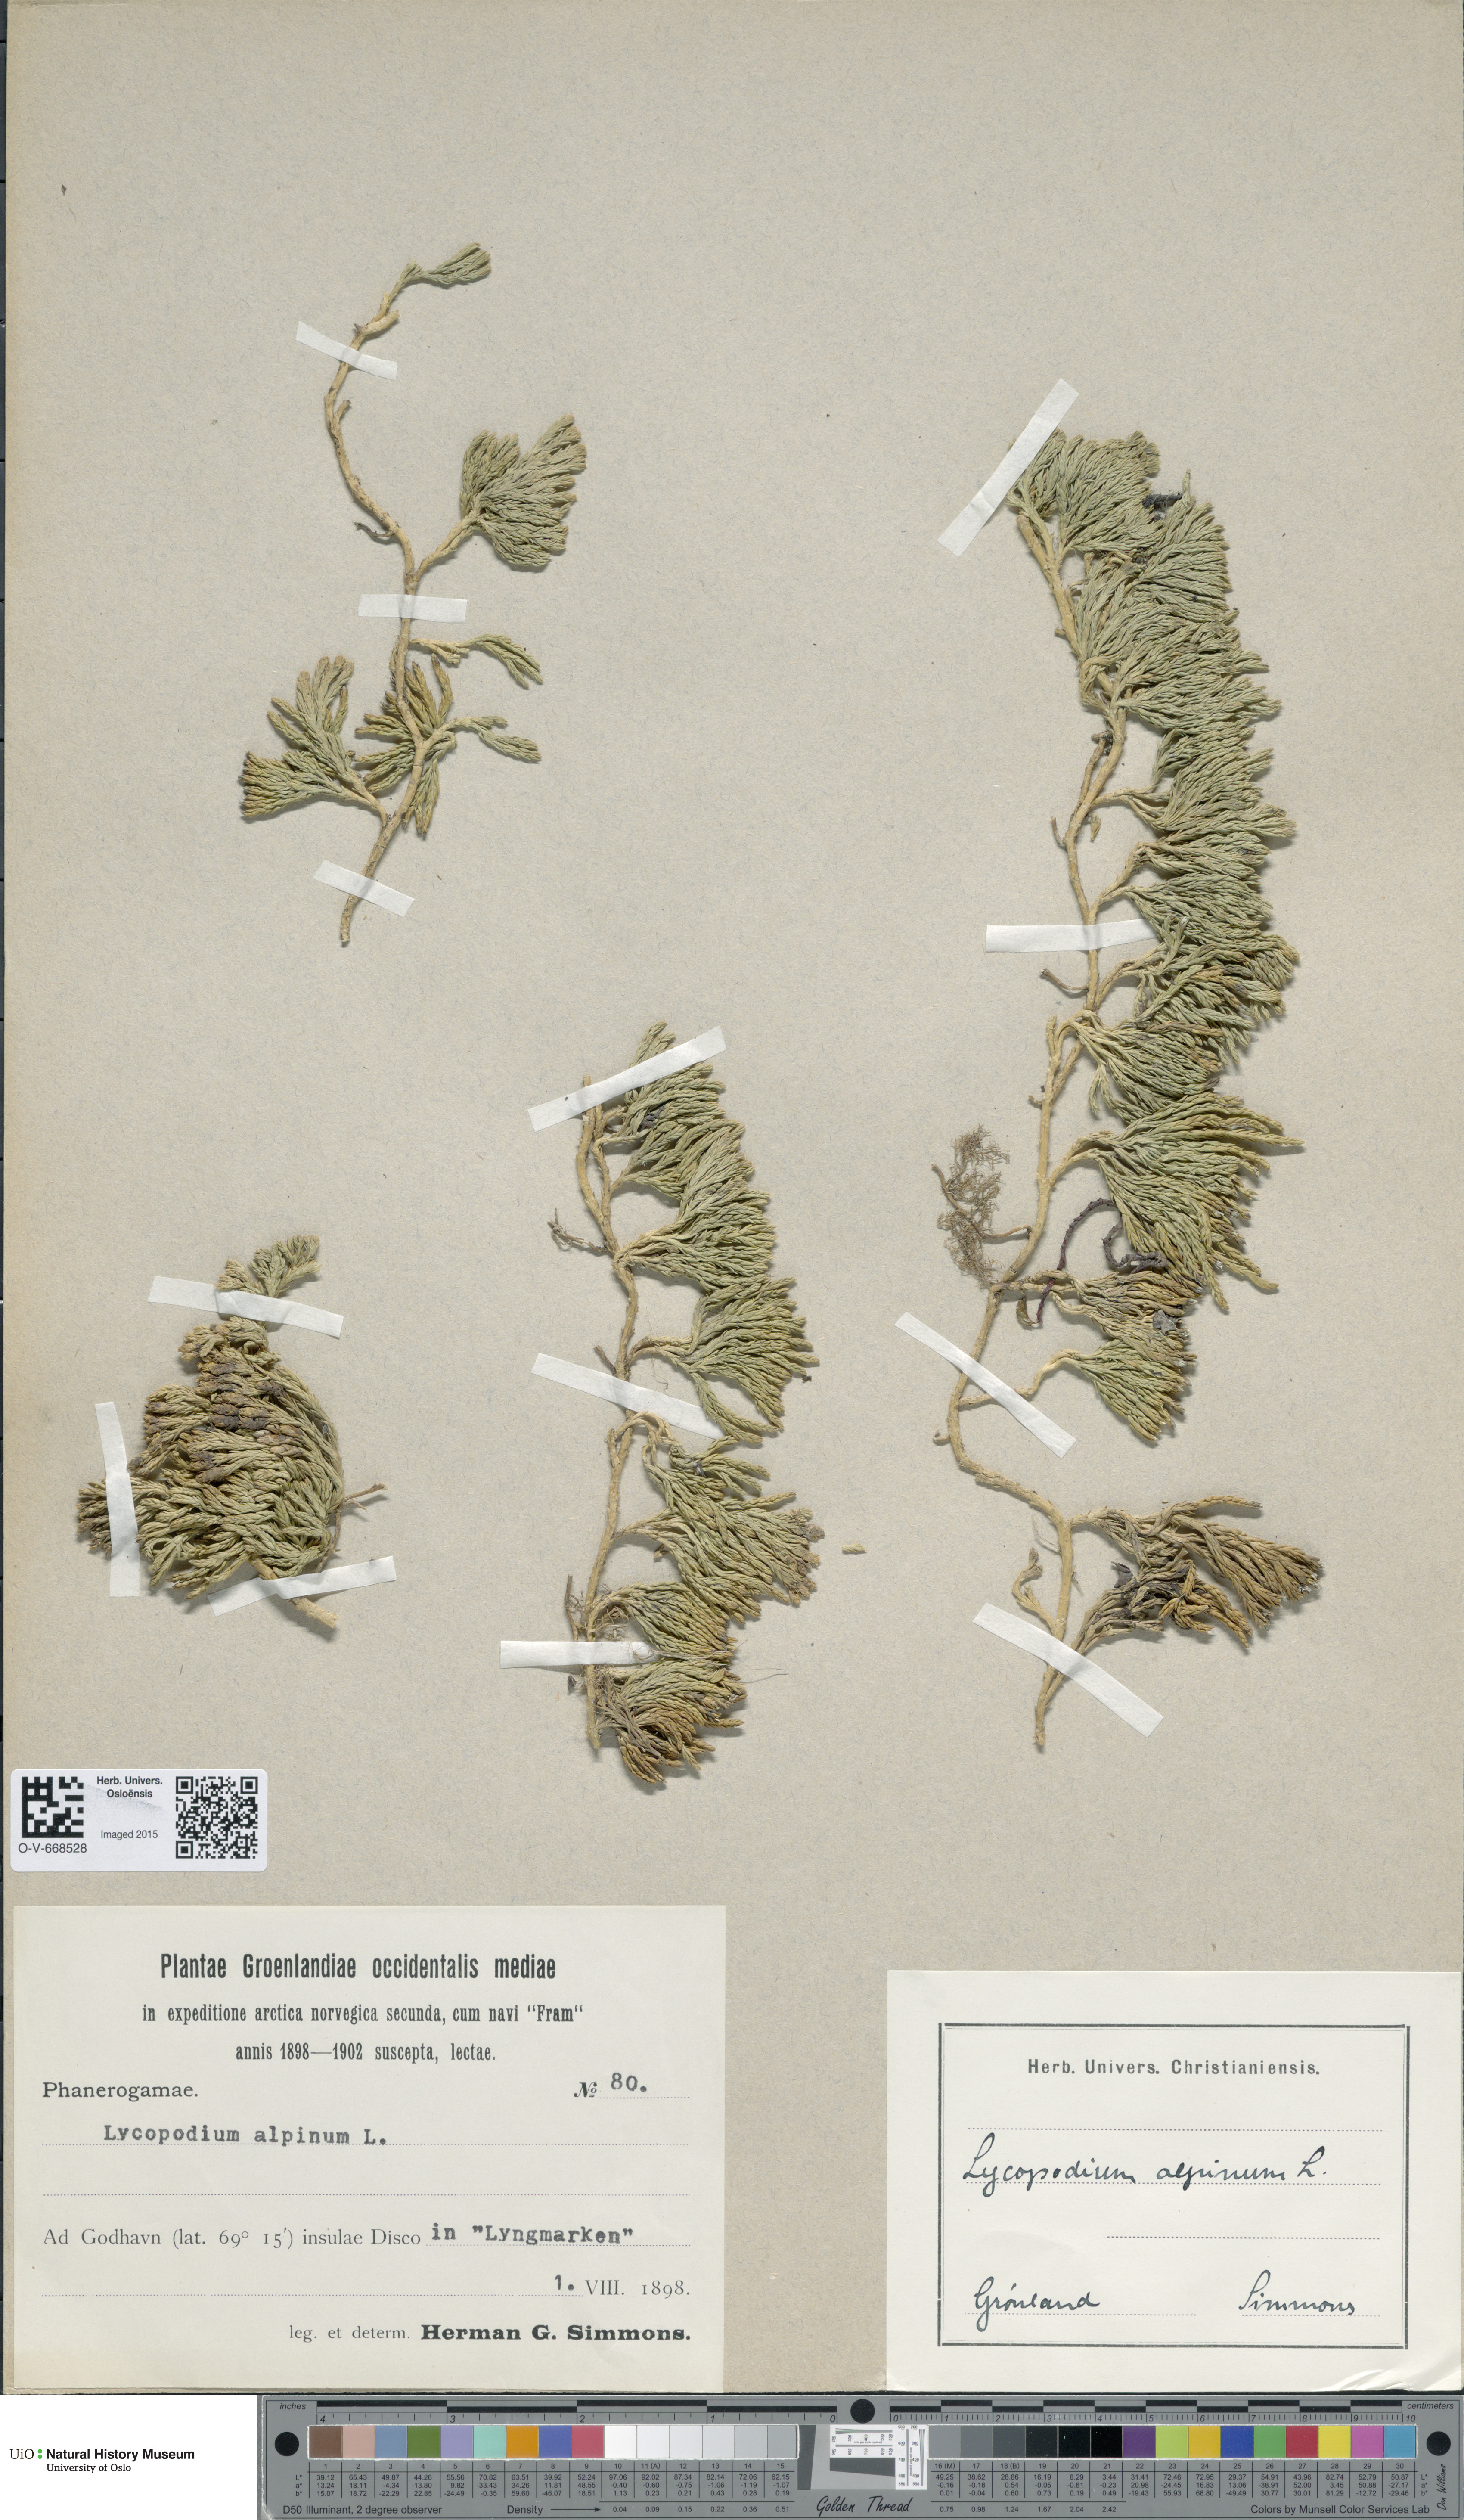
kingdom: Plantae
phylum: Tracheophyta
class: Lycopodiopsida
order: Lycopodiales
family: Lycopodiaceae
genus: Diphasiastrum
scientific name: Diphasiastrum alpinum
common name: Alpine clubmoss
